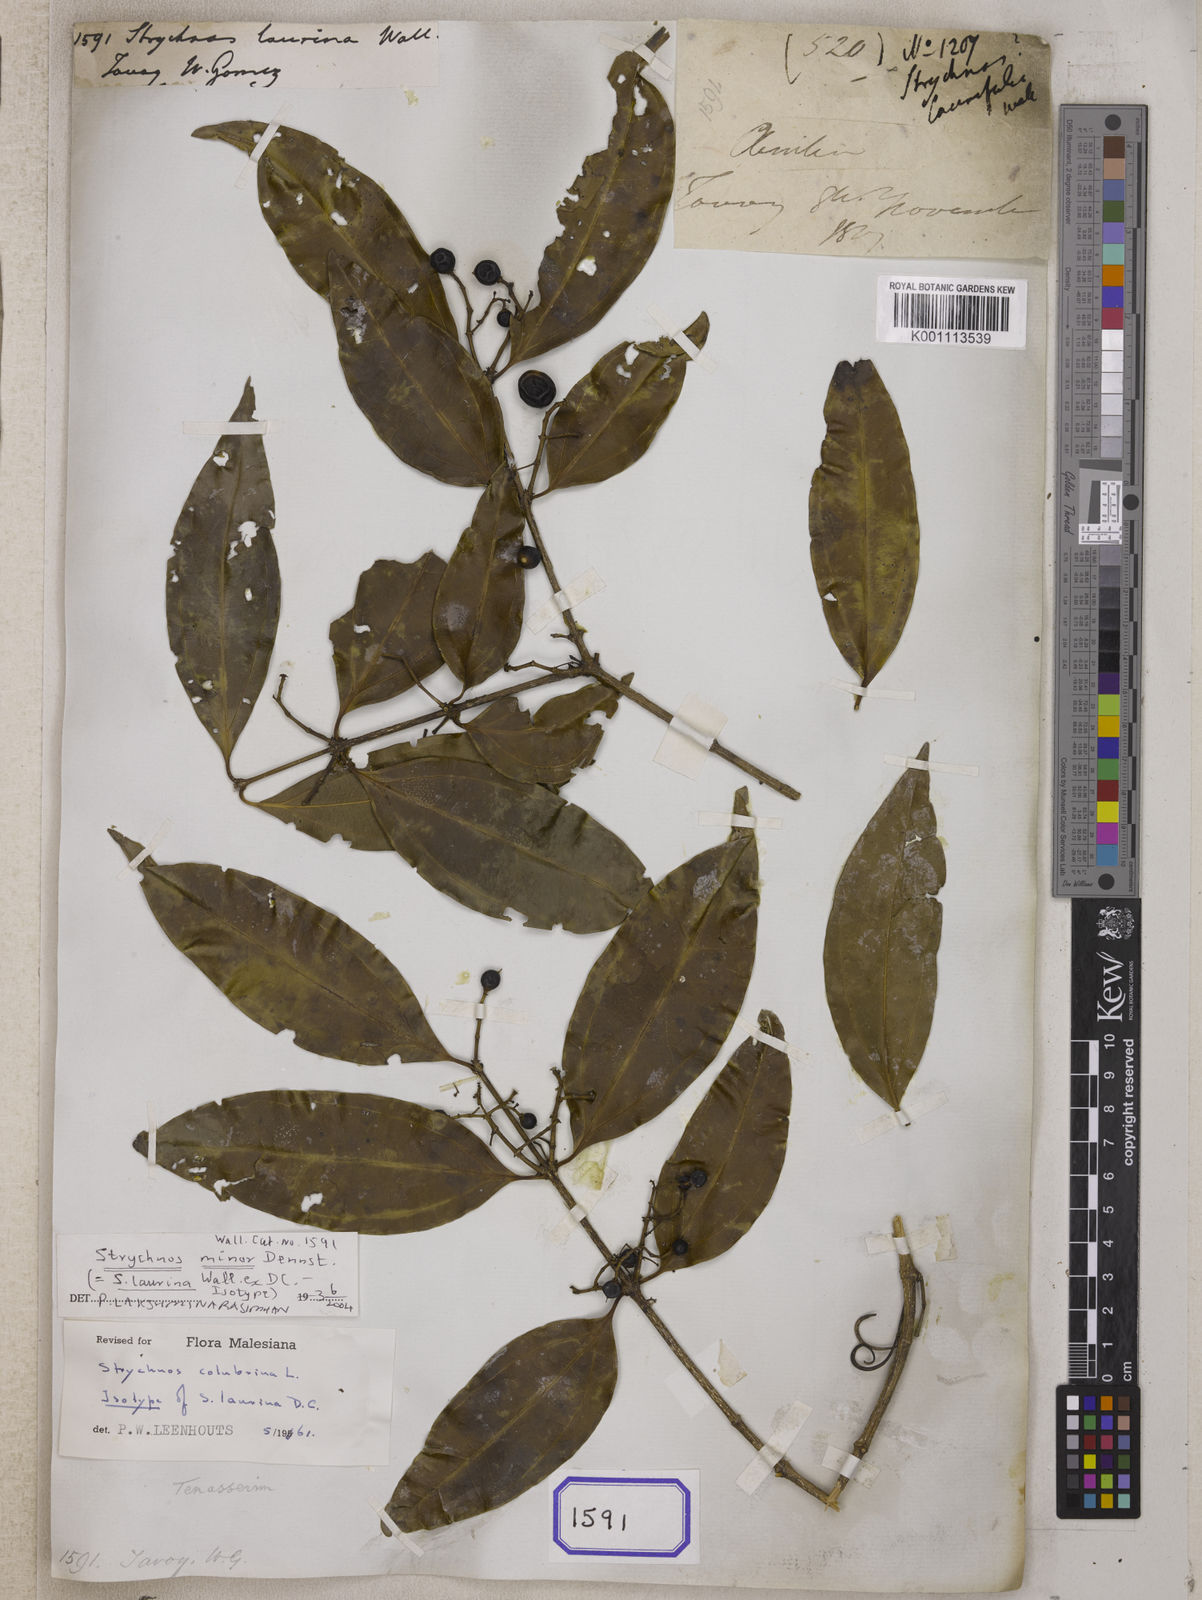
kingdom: Plantae
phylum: Tracheophyta
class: Magnoliopsida
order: Gentianales
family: Loganiaceae
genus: Strychnos
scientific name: Strychnos
